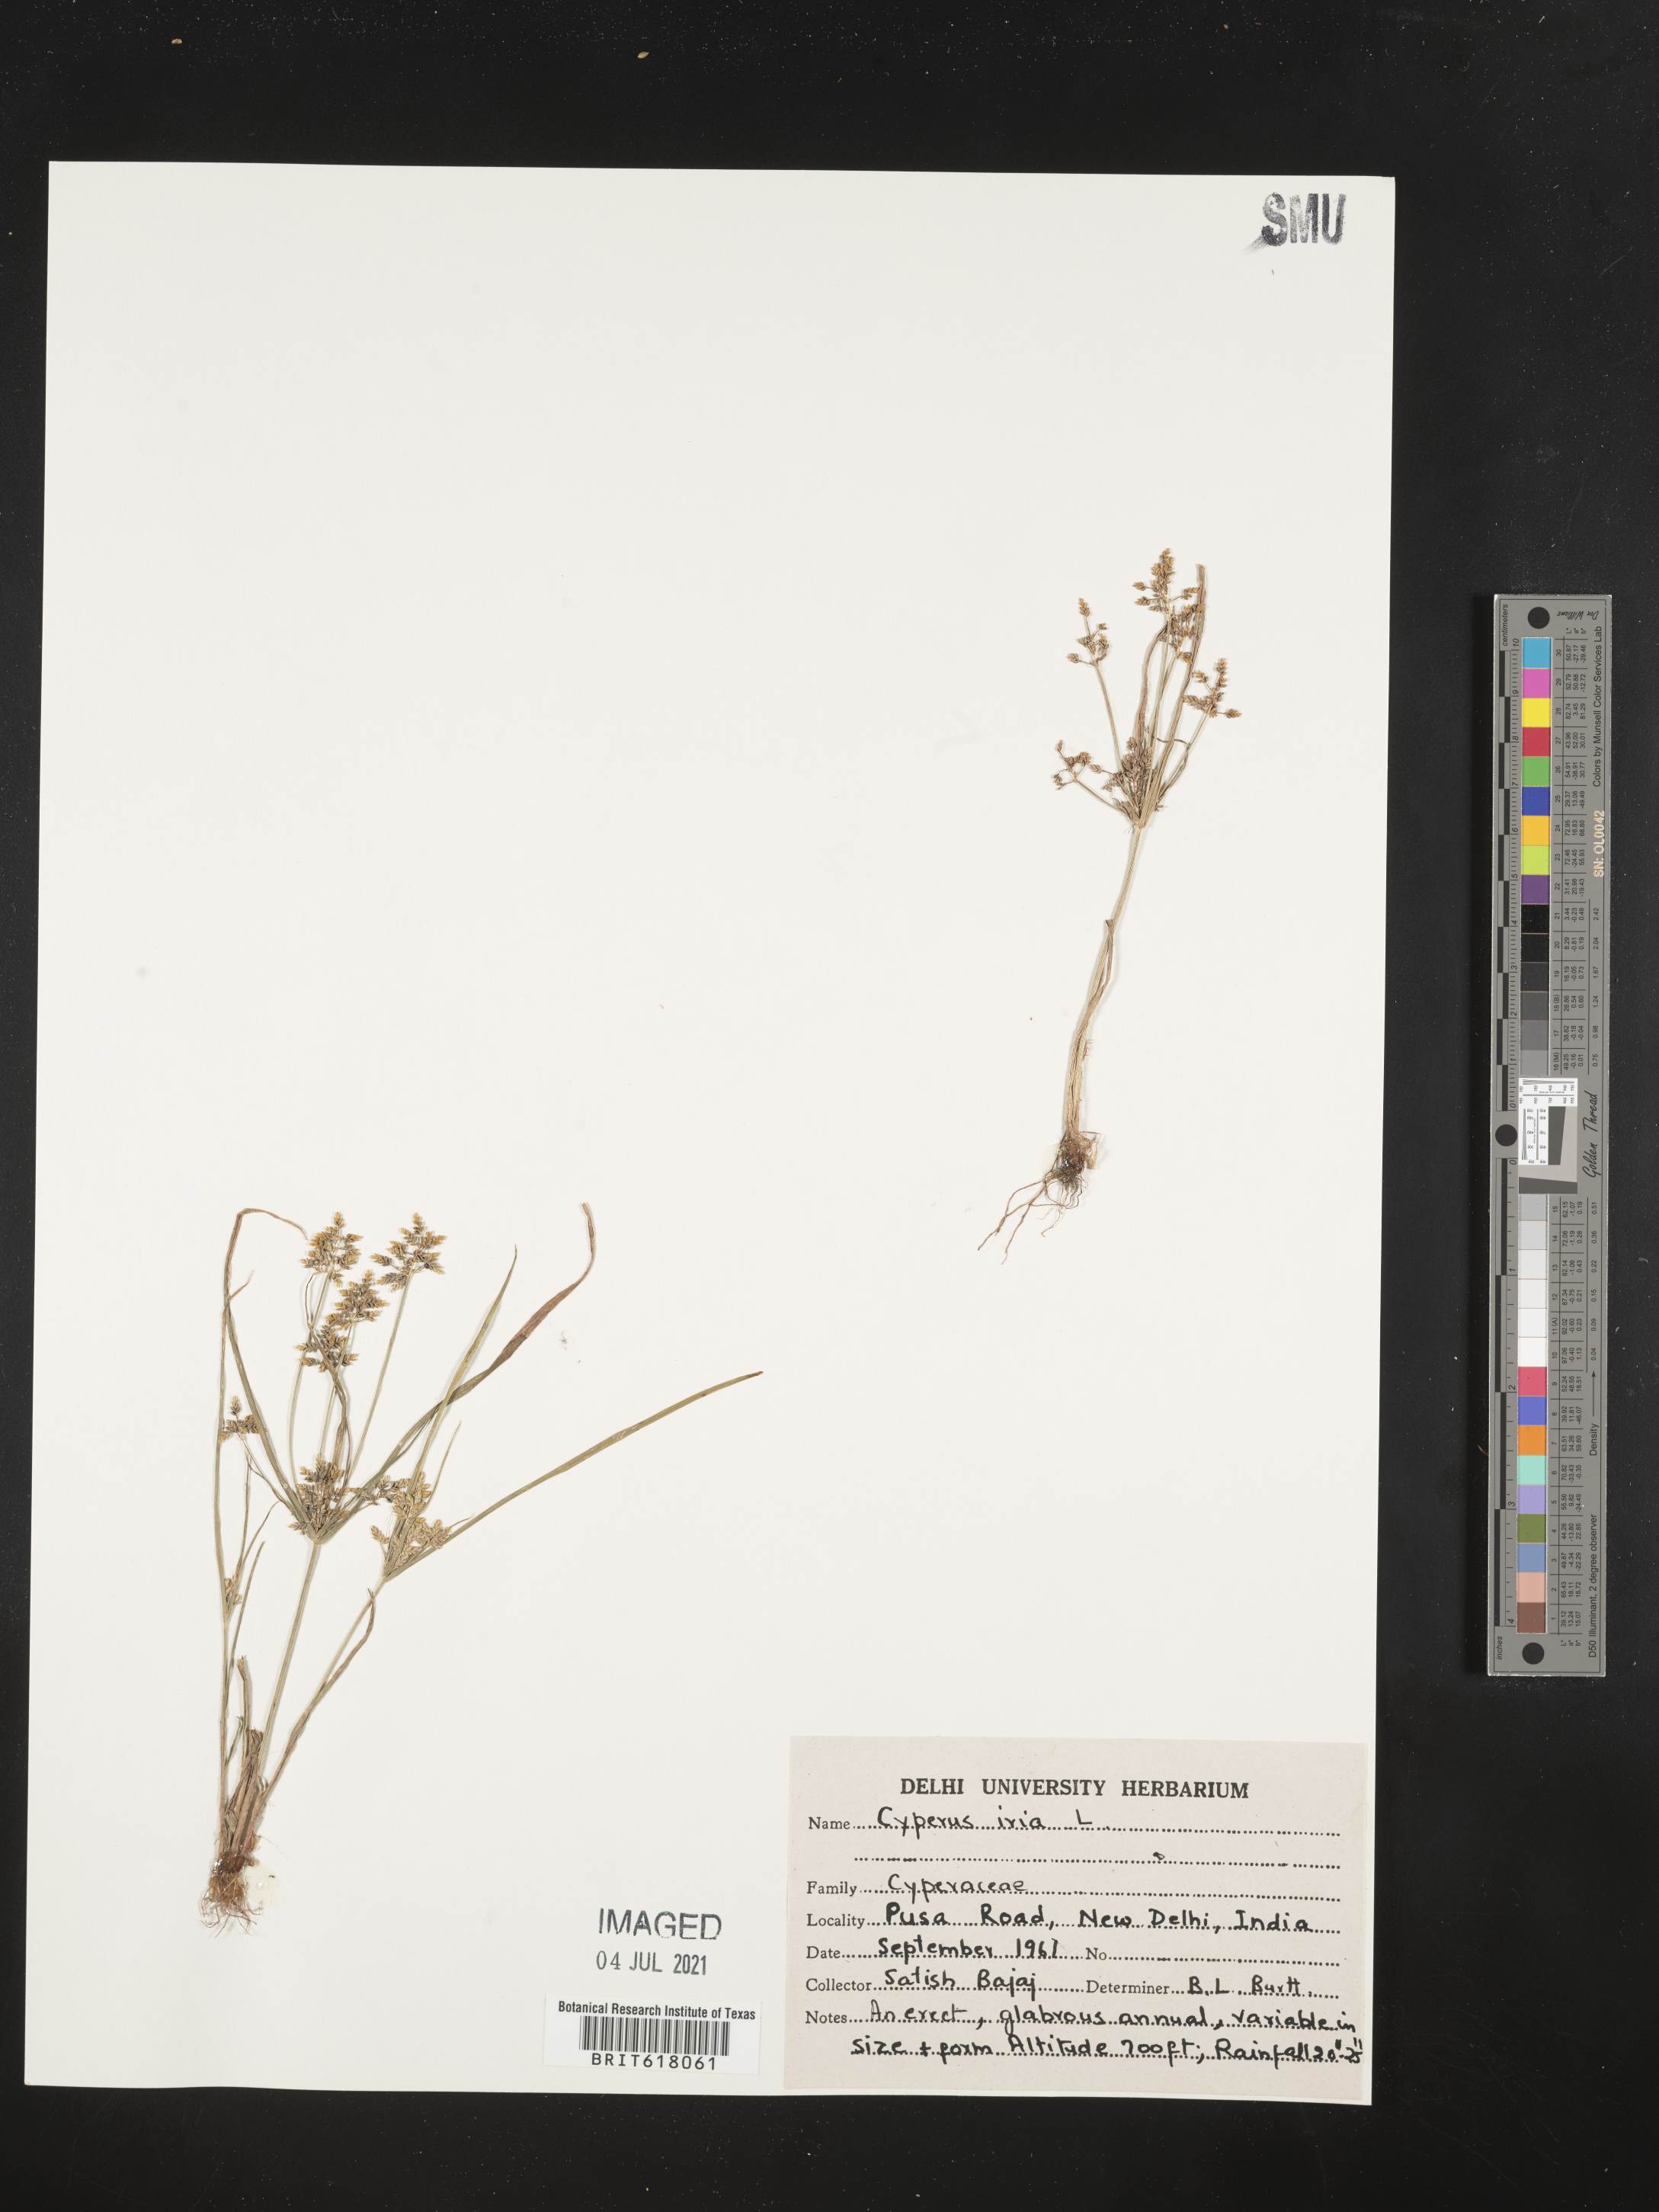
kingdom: Plantae
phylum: Tracheophyta
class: Liliopsida
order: Poales
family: Cyperaceae
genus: Cyperus
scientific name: Cyperus iria
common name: Ricefield flatsedge
